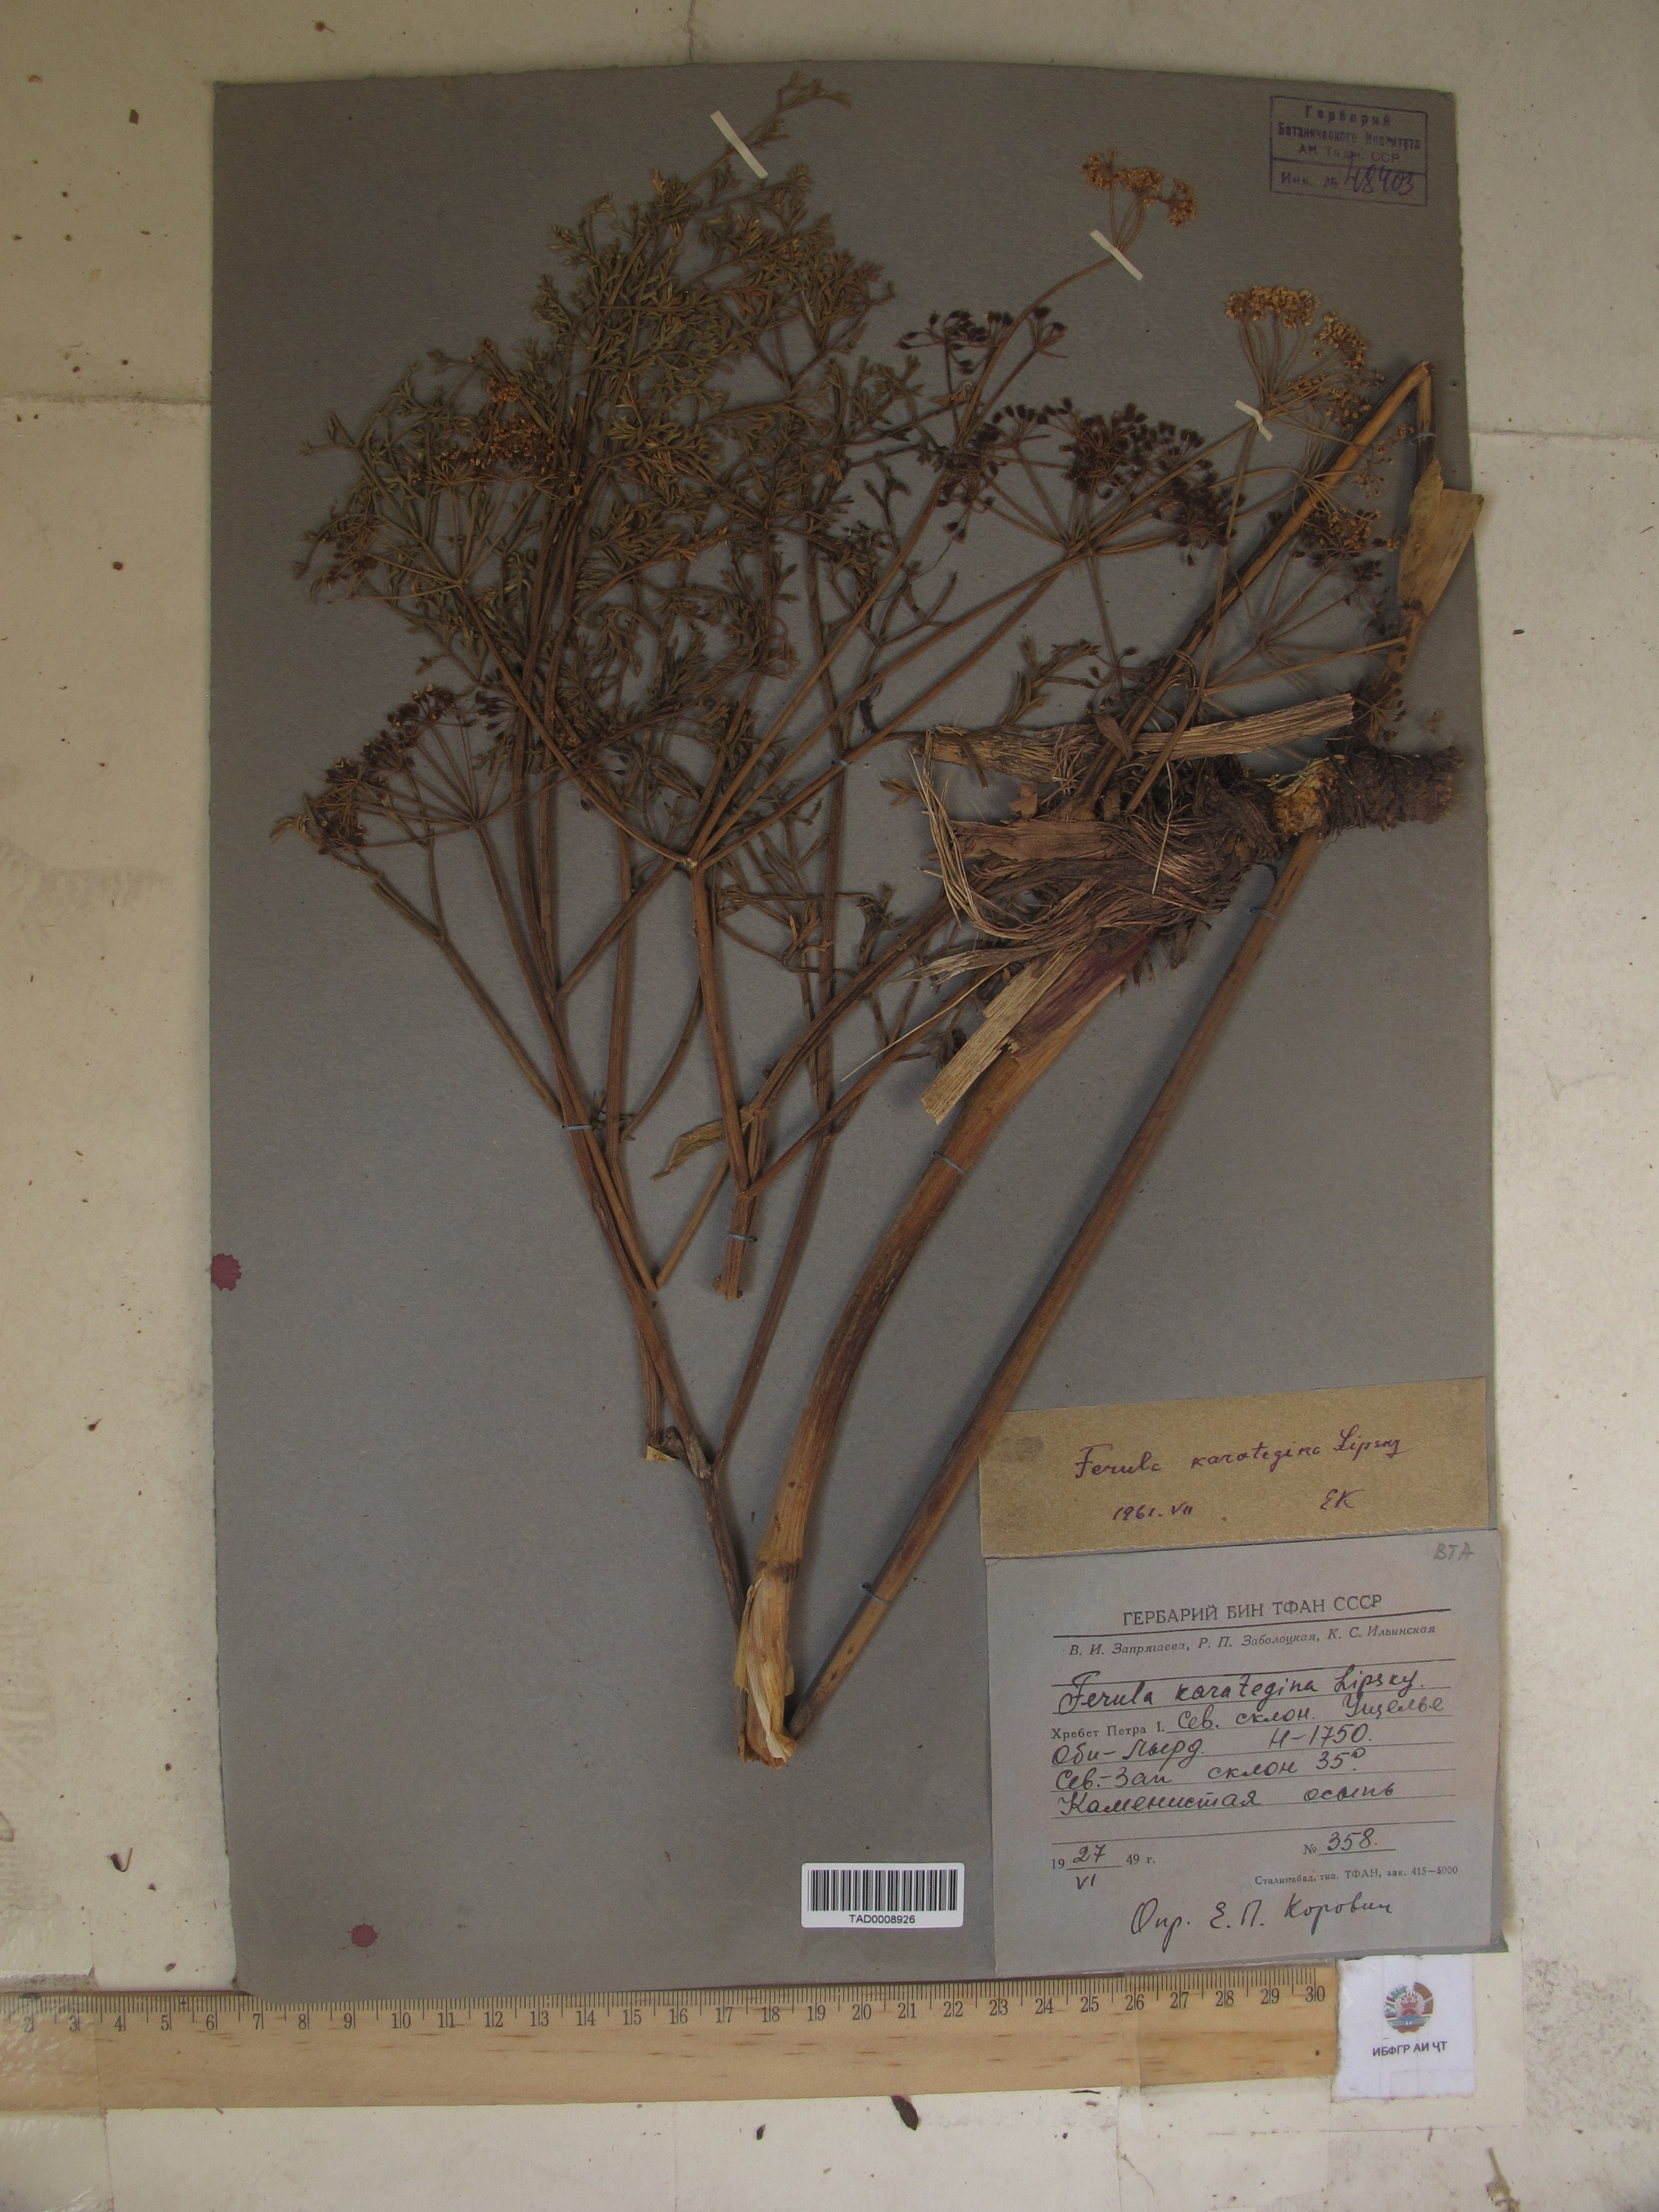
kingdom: Plantae
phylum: Tracheophyta
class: Magnoliopsida
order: Apiales
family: Apiaceae
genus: Ferula
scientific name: Ferula karategina
